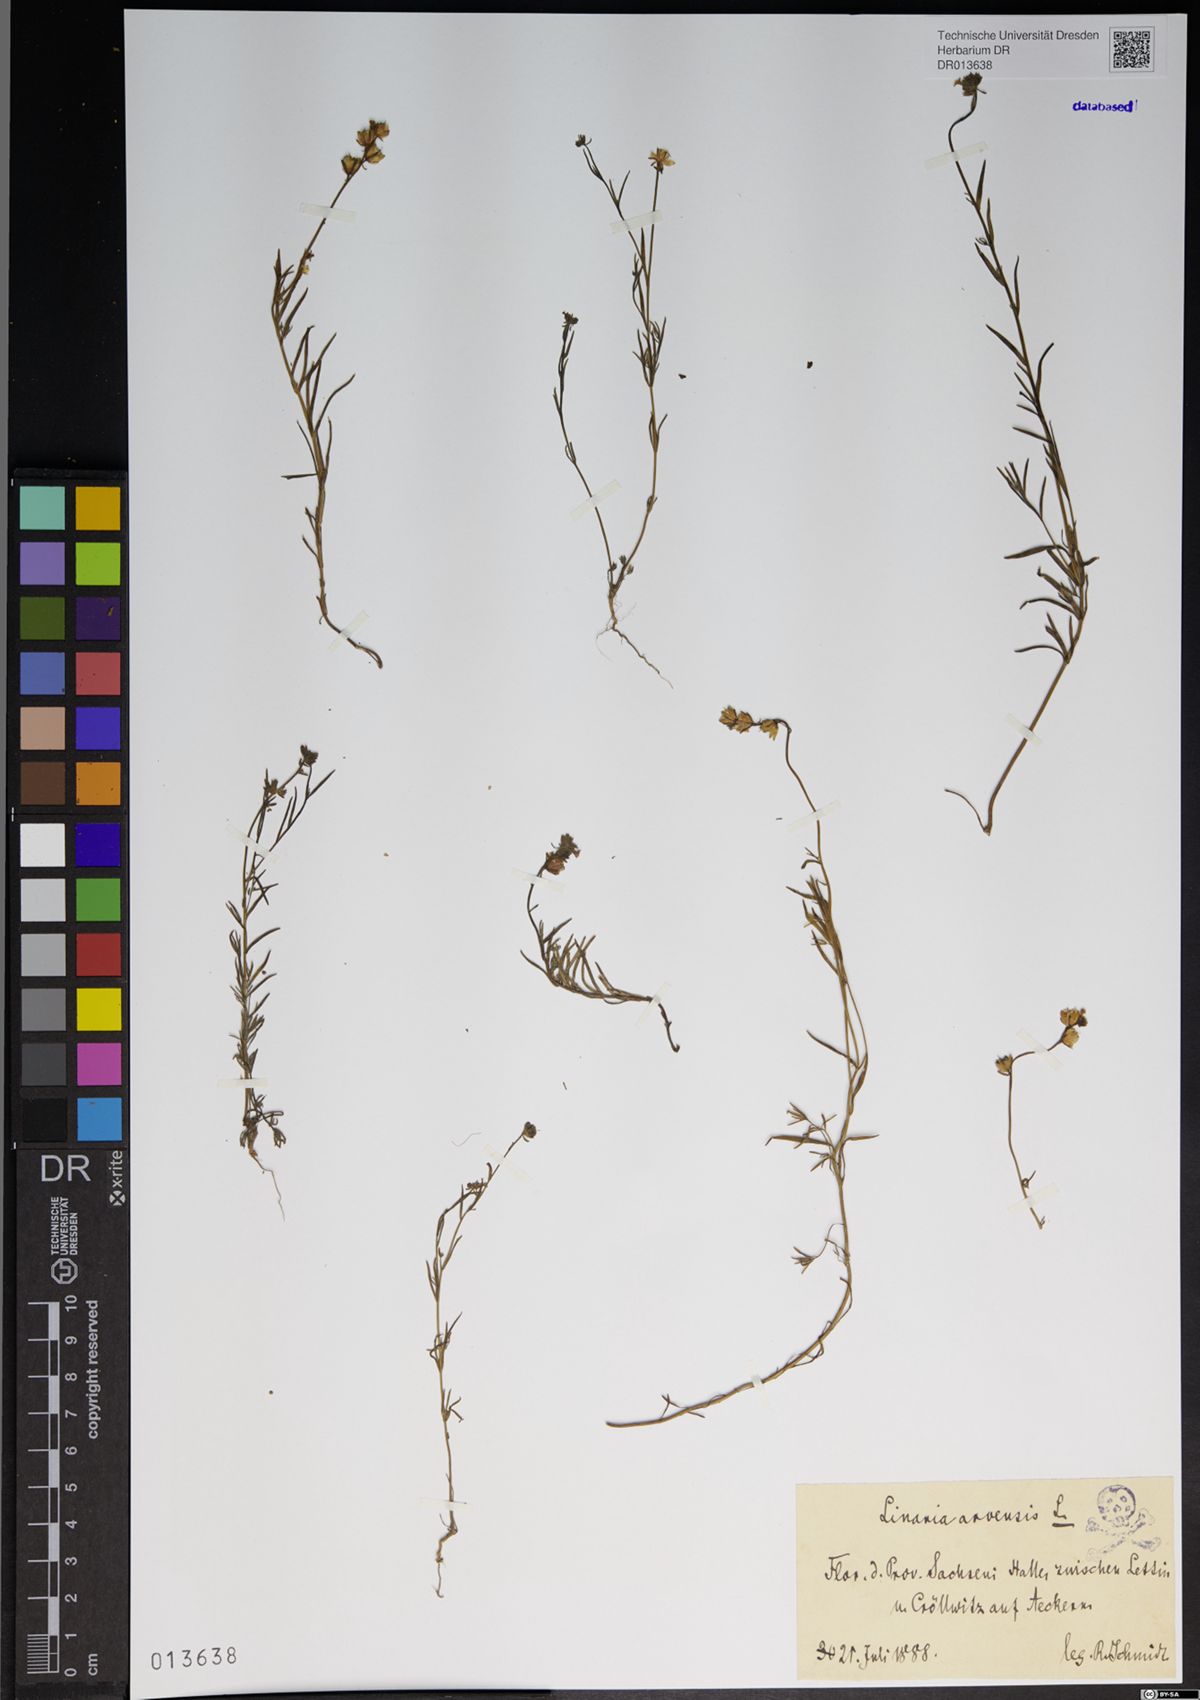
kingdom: Plantae
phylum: Tracheophyta
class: Magnoliopsida
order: Lamiales
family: Plantaginaceae
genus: Linaria
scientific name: Linaria arvensis
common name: Corn toadflax
